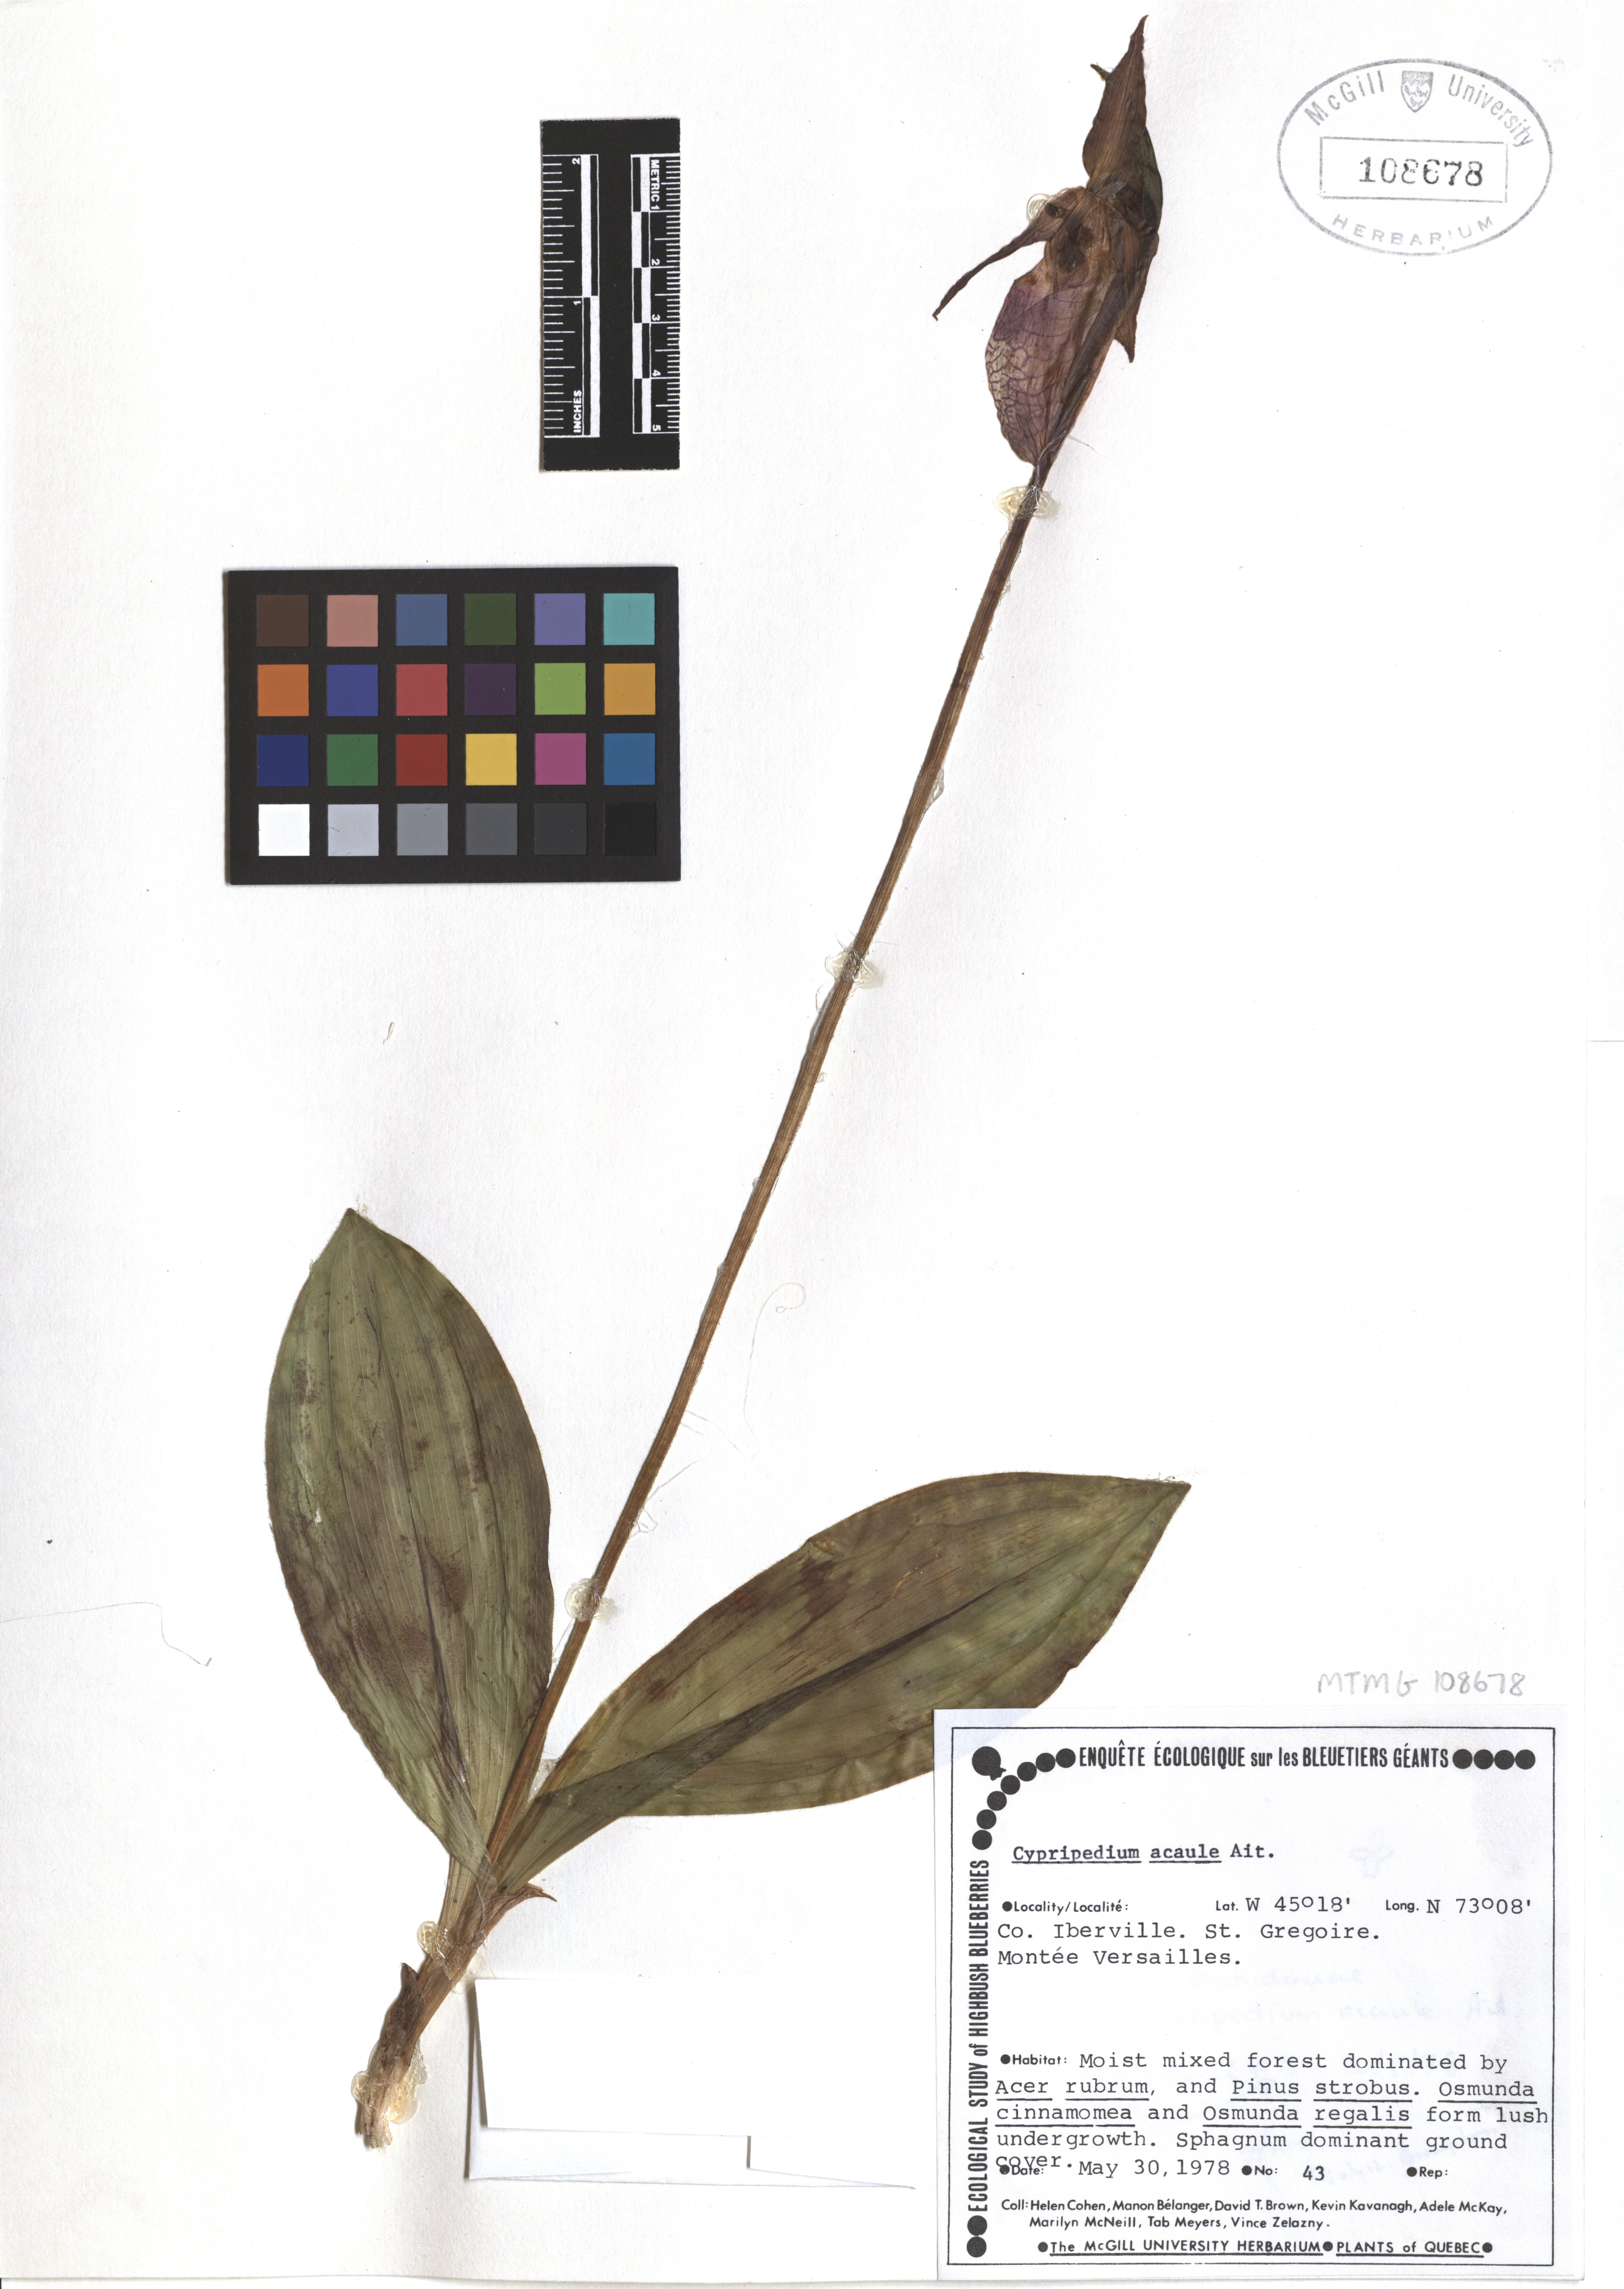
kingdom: Plantae
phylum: Tracheophyta
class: Liliopsida
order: Asparagales
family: Orchidaceae
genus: Cypripedium
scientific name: Cypripedium acaule
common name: Pink lady's-slipper
